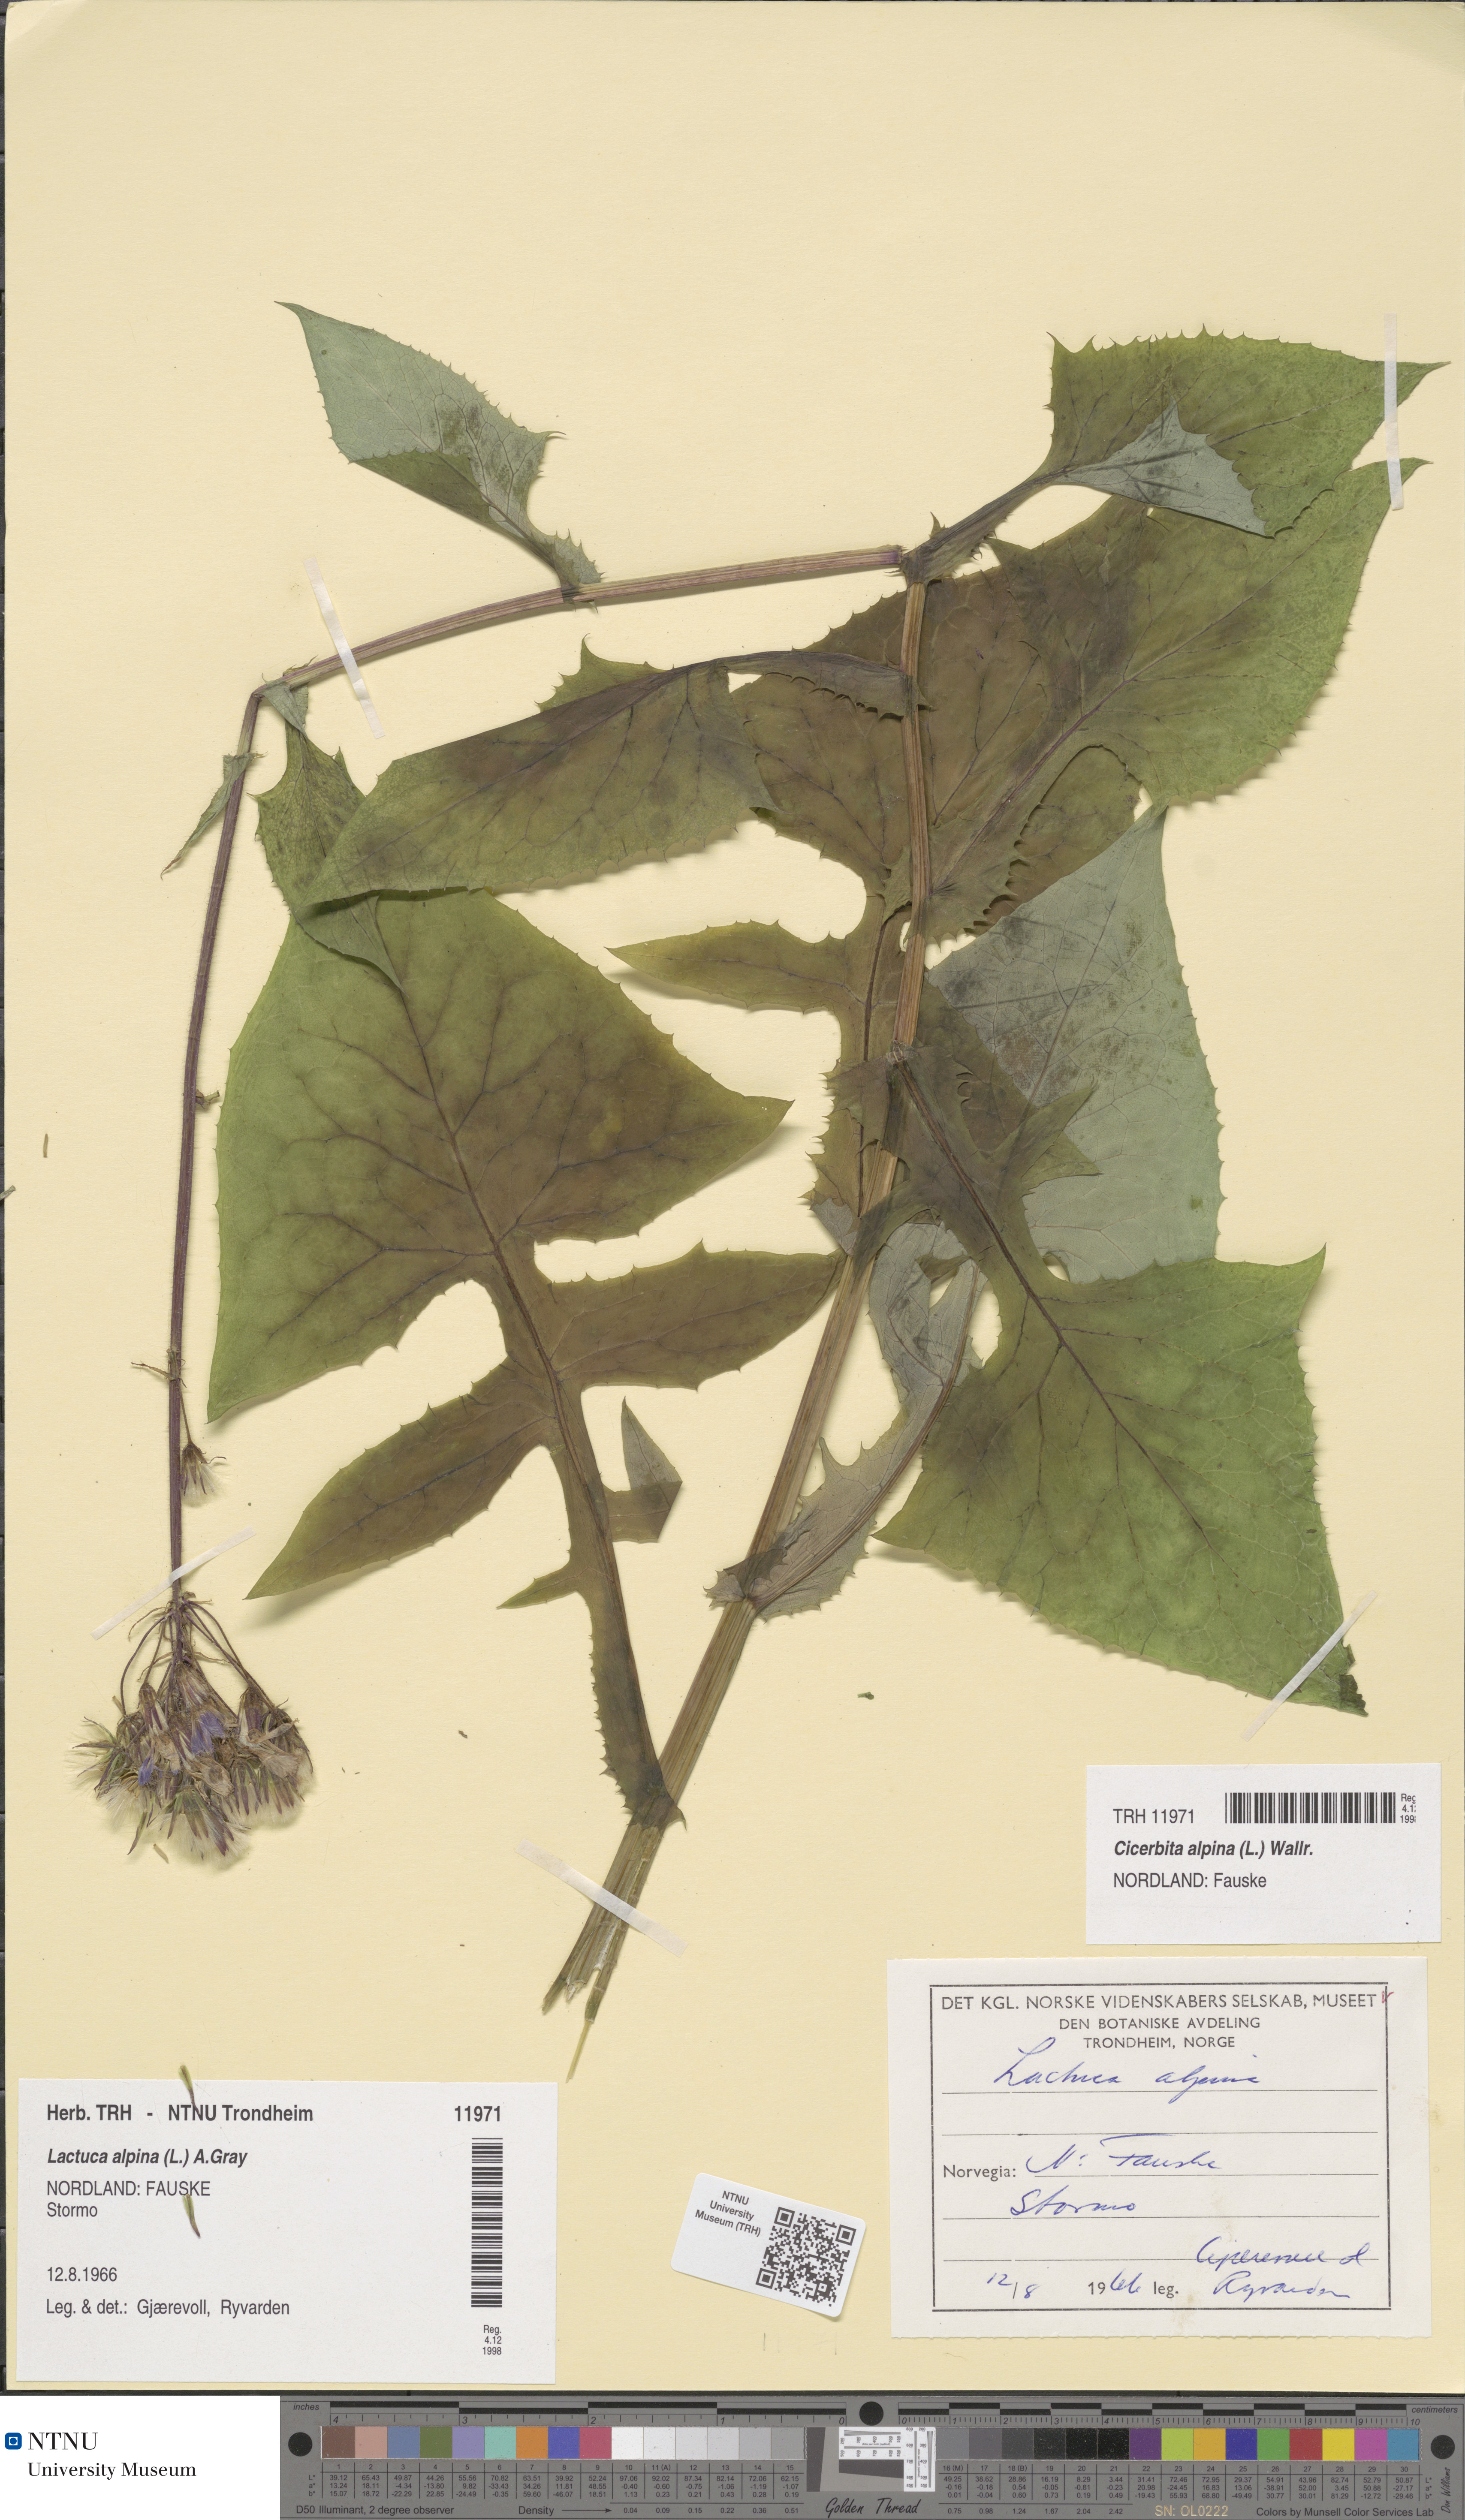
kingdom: Plantae
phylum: Tracheophyta
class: Magnoliopsida
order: Asterales
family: Asteraceae
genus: Cicerbita
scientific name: Cicerbita alpina
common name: Alpine blue-sow-thistle
